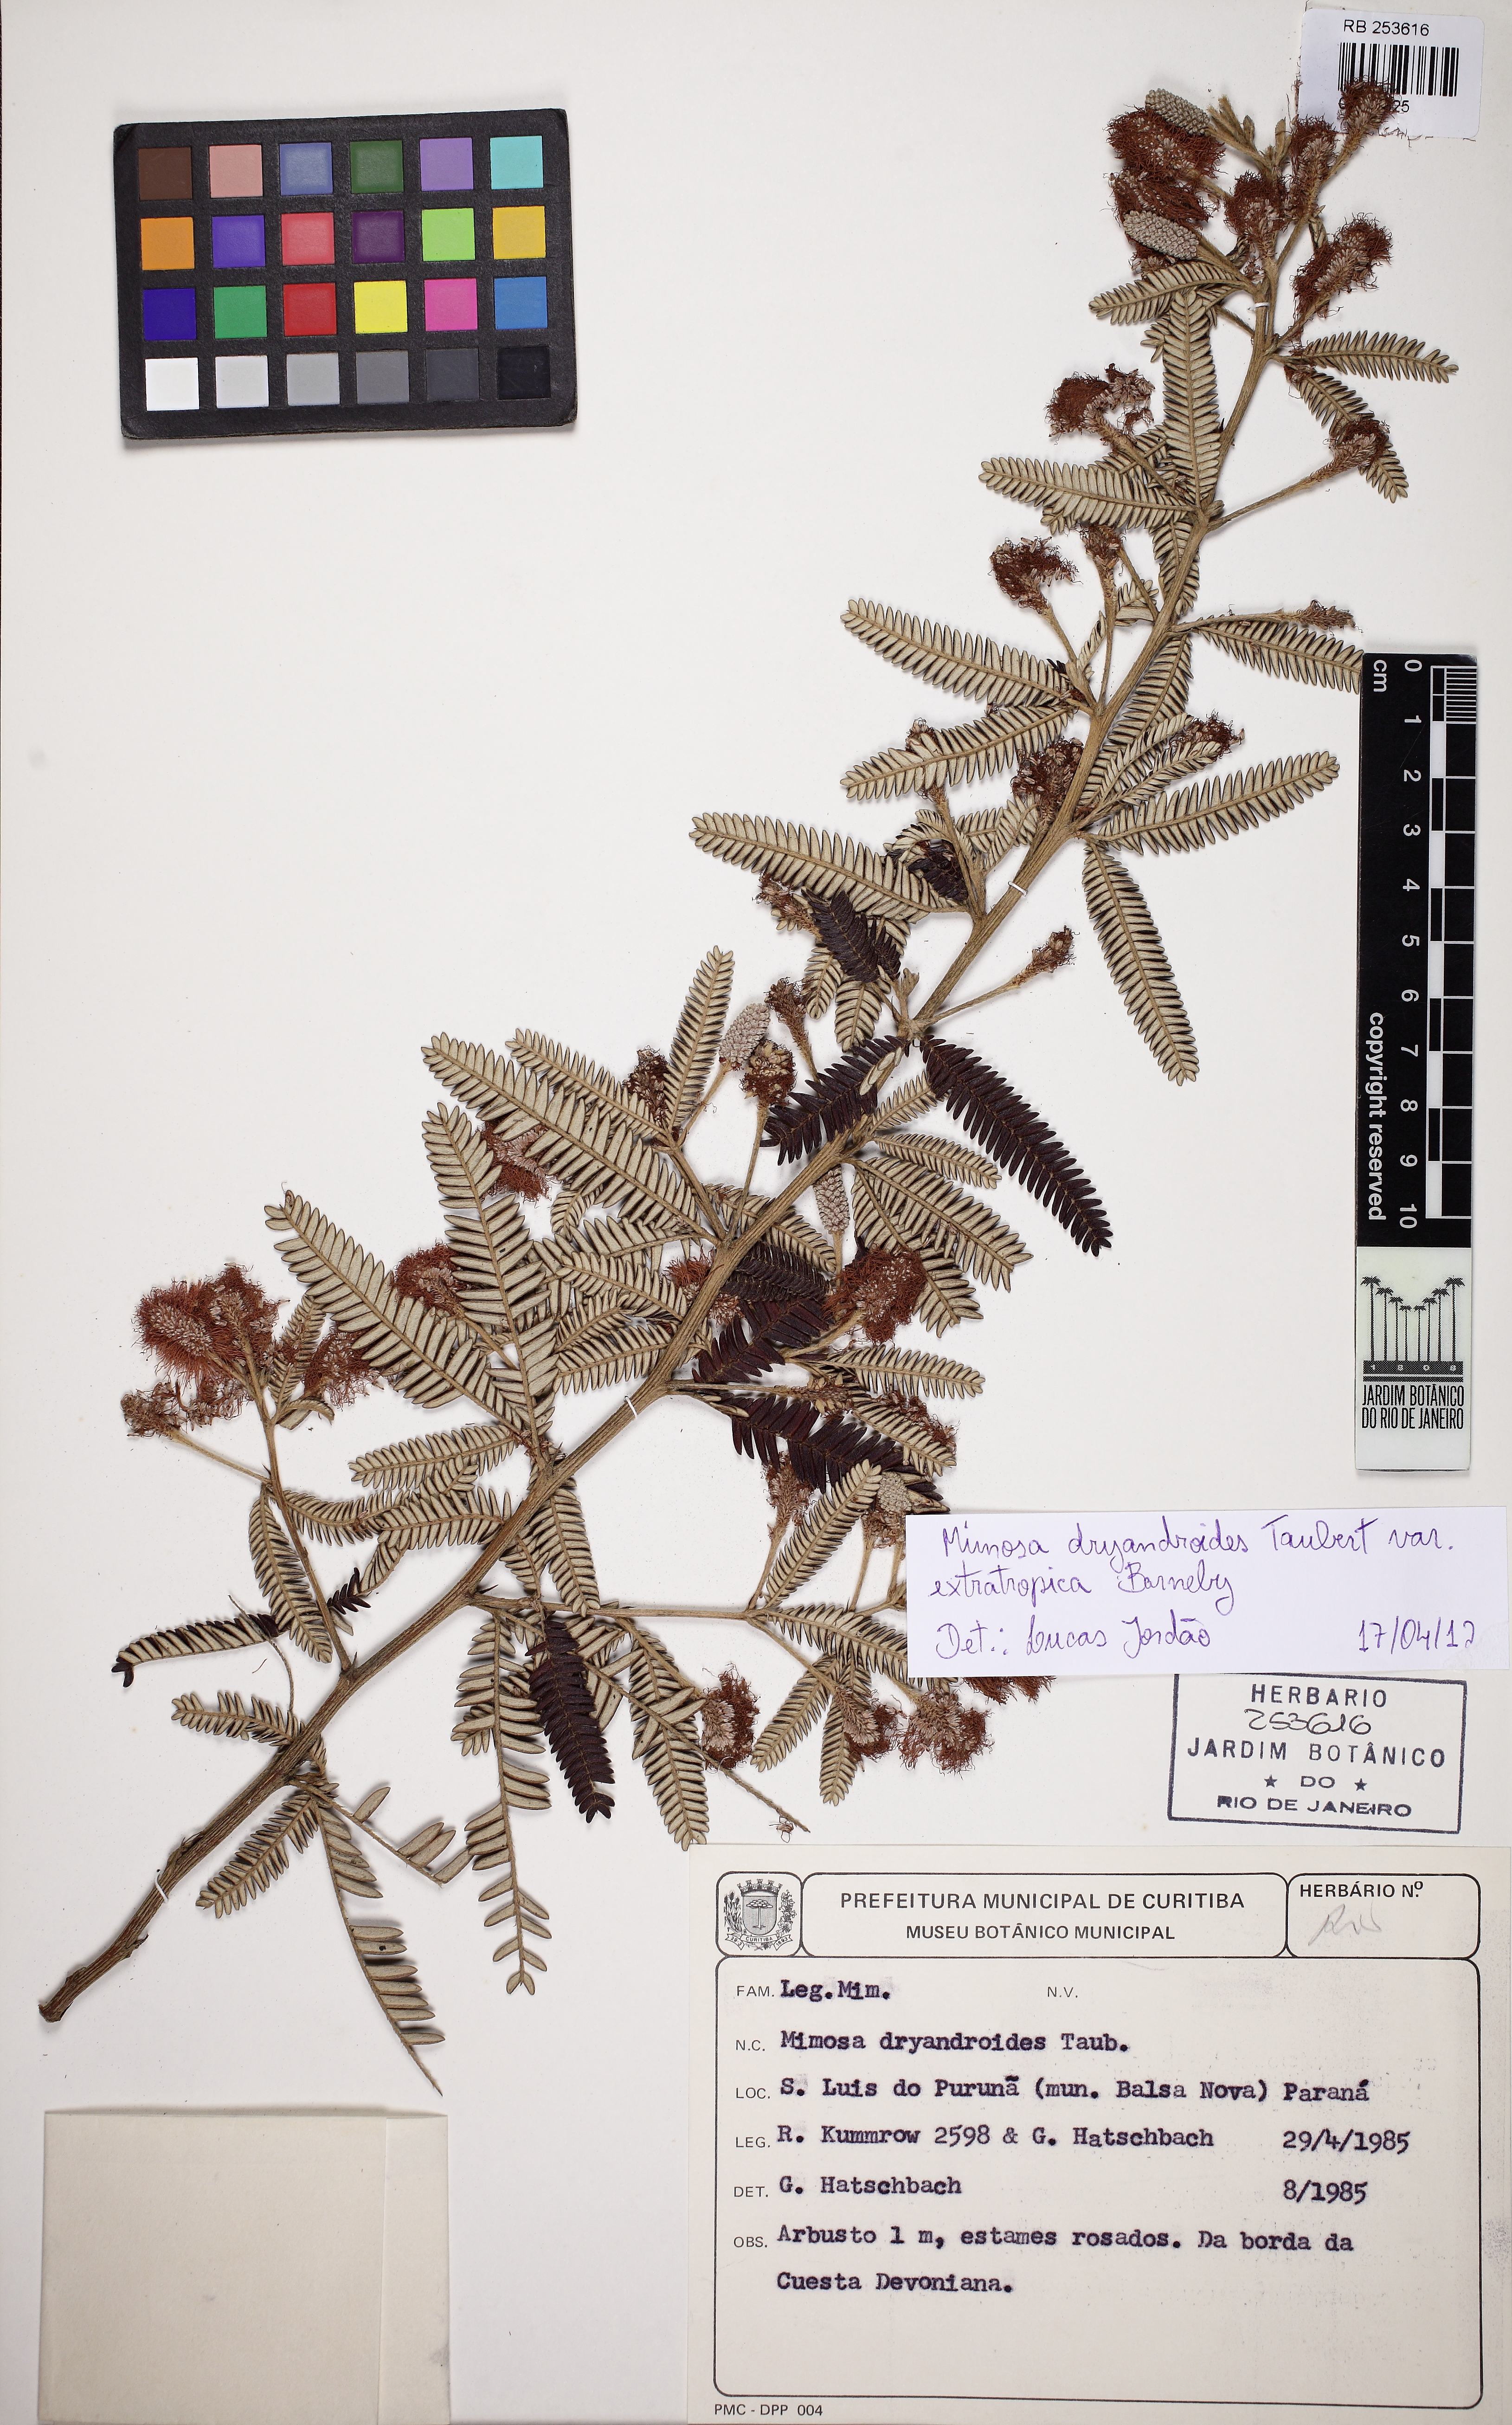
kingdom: Plantae
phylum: Tracheophyta
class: Magnoliopsida
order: Fabales
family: Fabaceae
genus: Mimosa
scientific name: Mimosa dryandroides
